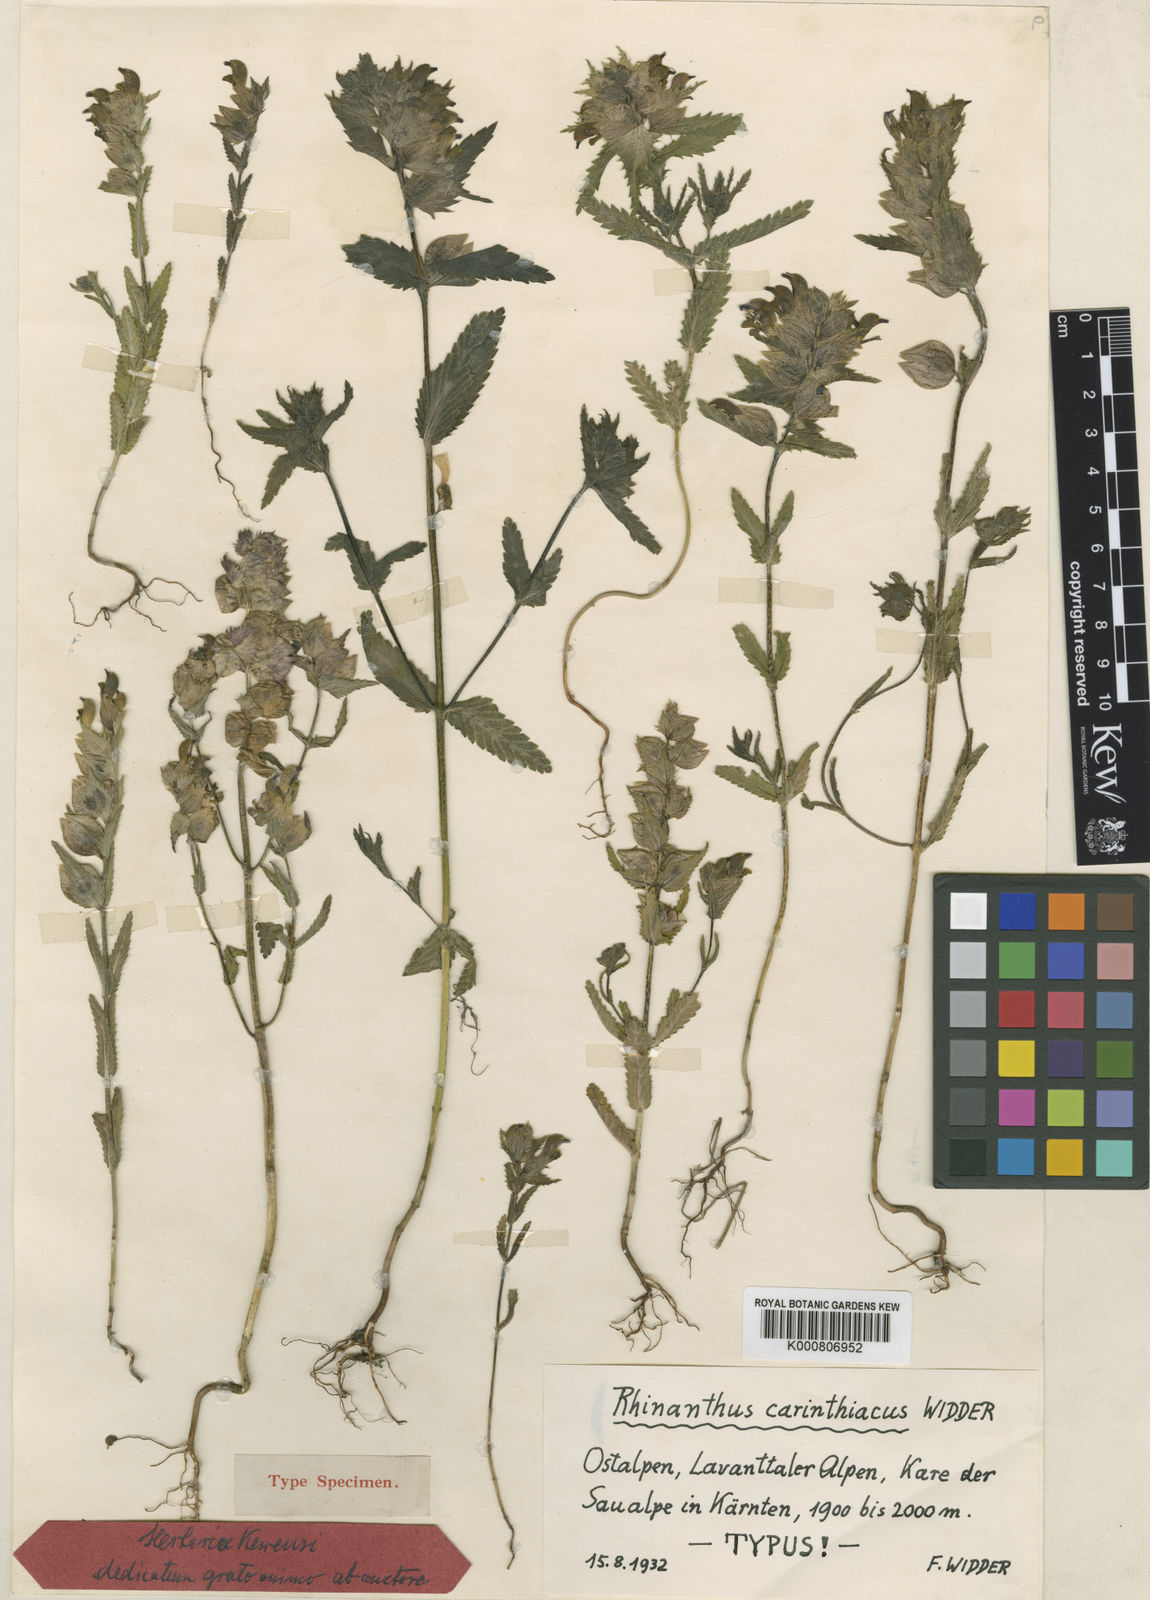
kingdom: Plantae
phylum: Tracheophyta
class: Magnoliopsida
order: Lamiales
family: Orobanchaceae
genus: Rhinanthus
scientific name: Rhinanthus carinthiacus
